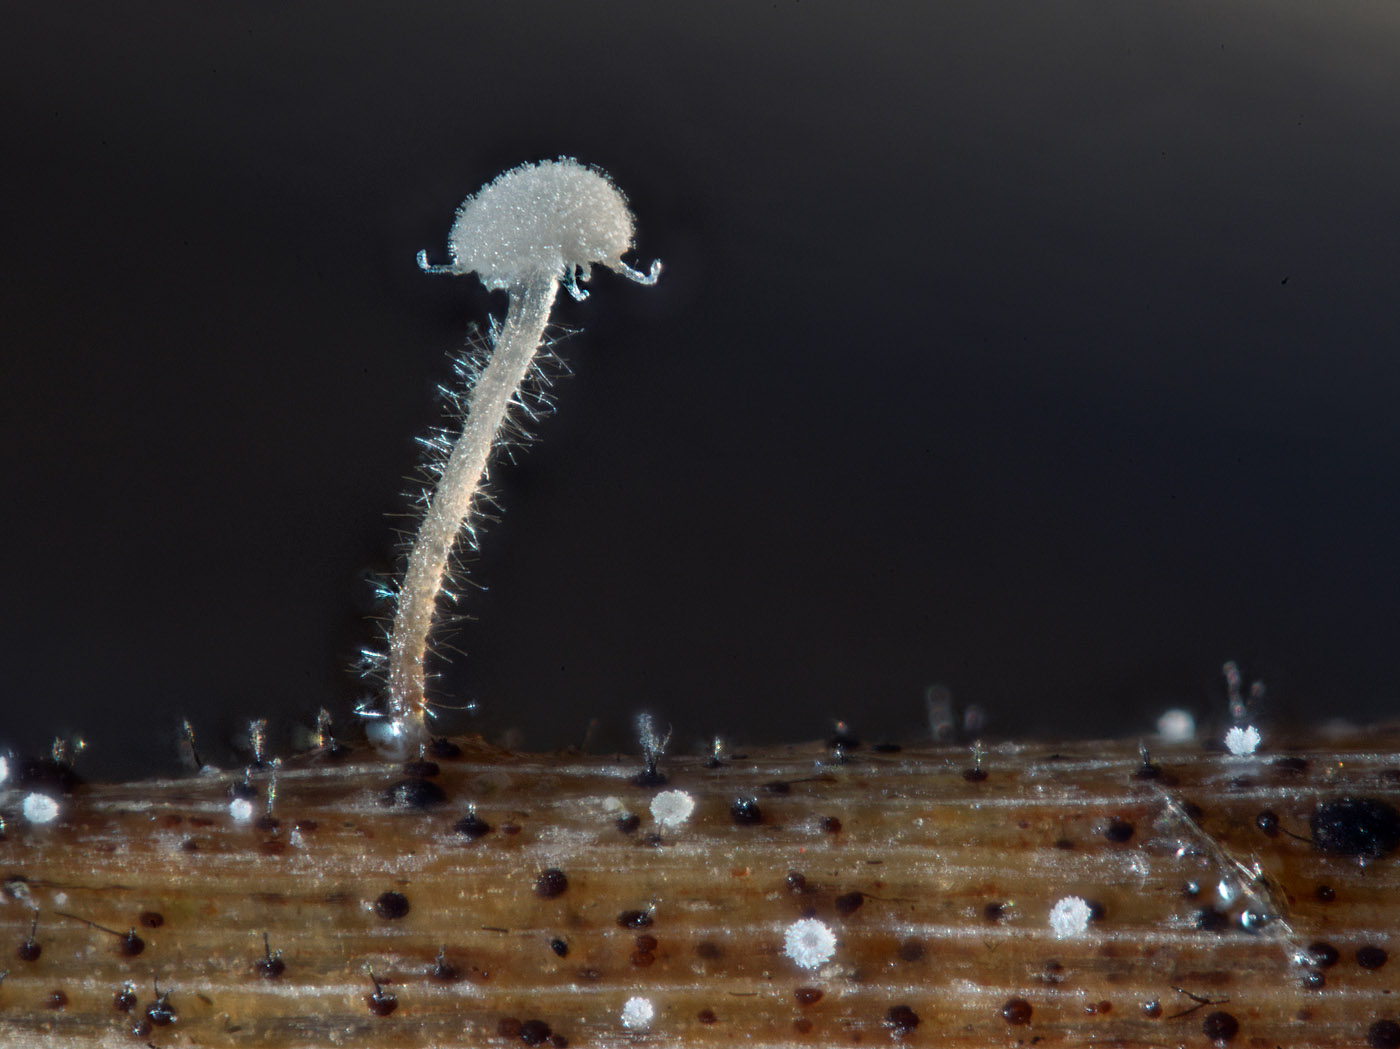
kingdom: Fungi
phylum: Basidiomycota
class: Agaricomycetes
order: Agaricales
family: Typhulaceae
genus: Typhula
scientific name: Typhula brunneola
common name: sømkølle
